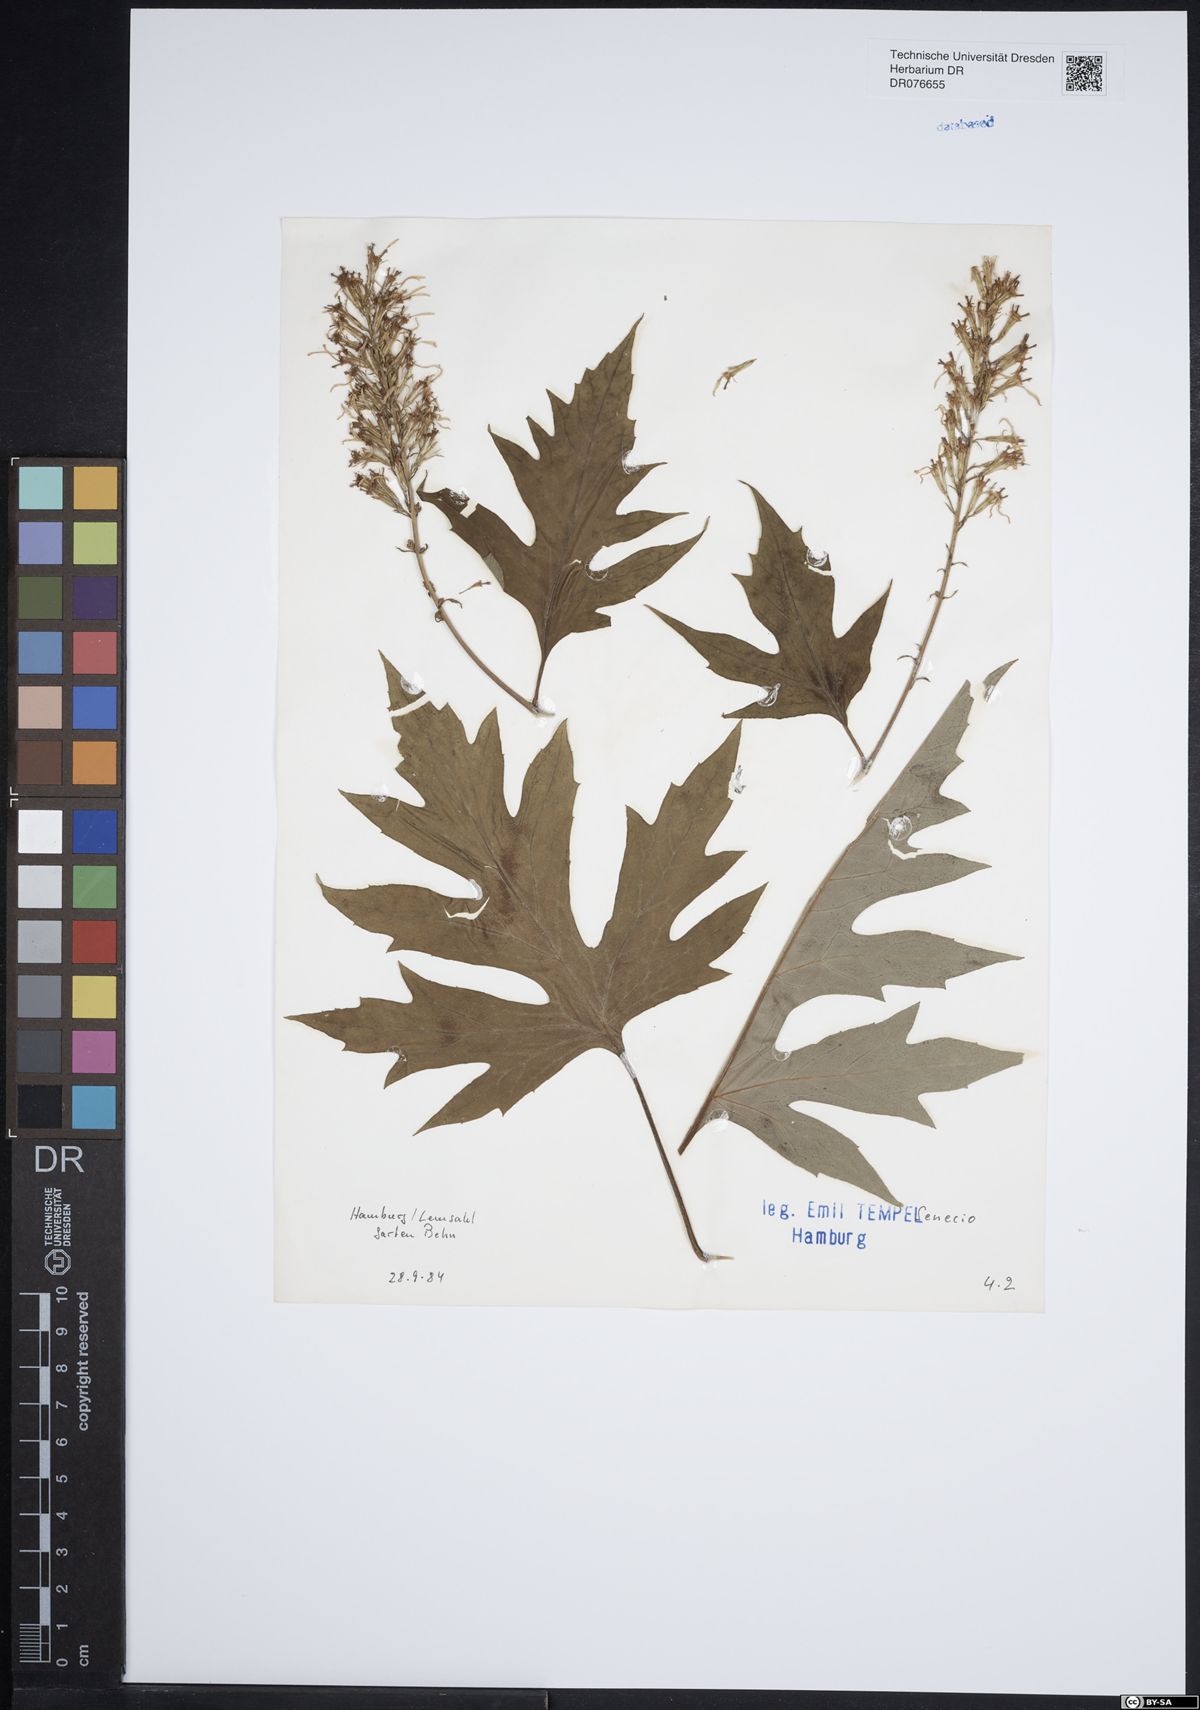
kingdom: Plantae
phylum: Tracheophyta
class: Magnoliopsida
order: Asterales
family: Asteraceae
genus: Senecio
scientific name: Senecio
